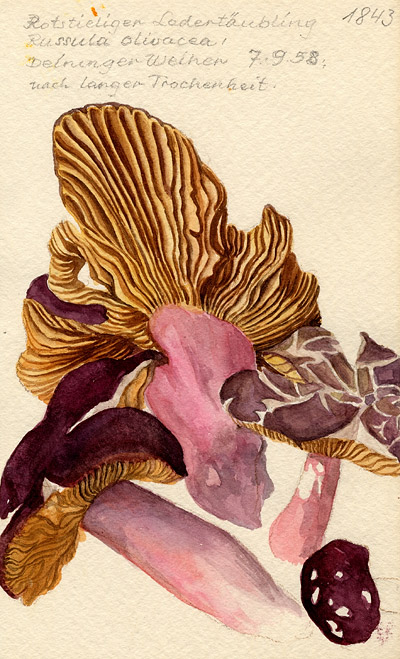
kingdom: Fungi
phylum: Basidiomycota
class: Agaricomycetes
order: Russulales
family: Russulaceae
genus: Russula
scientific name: Russula olivacea
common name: Olive brittlegill
